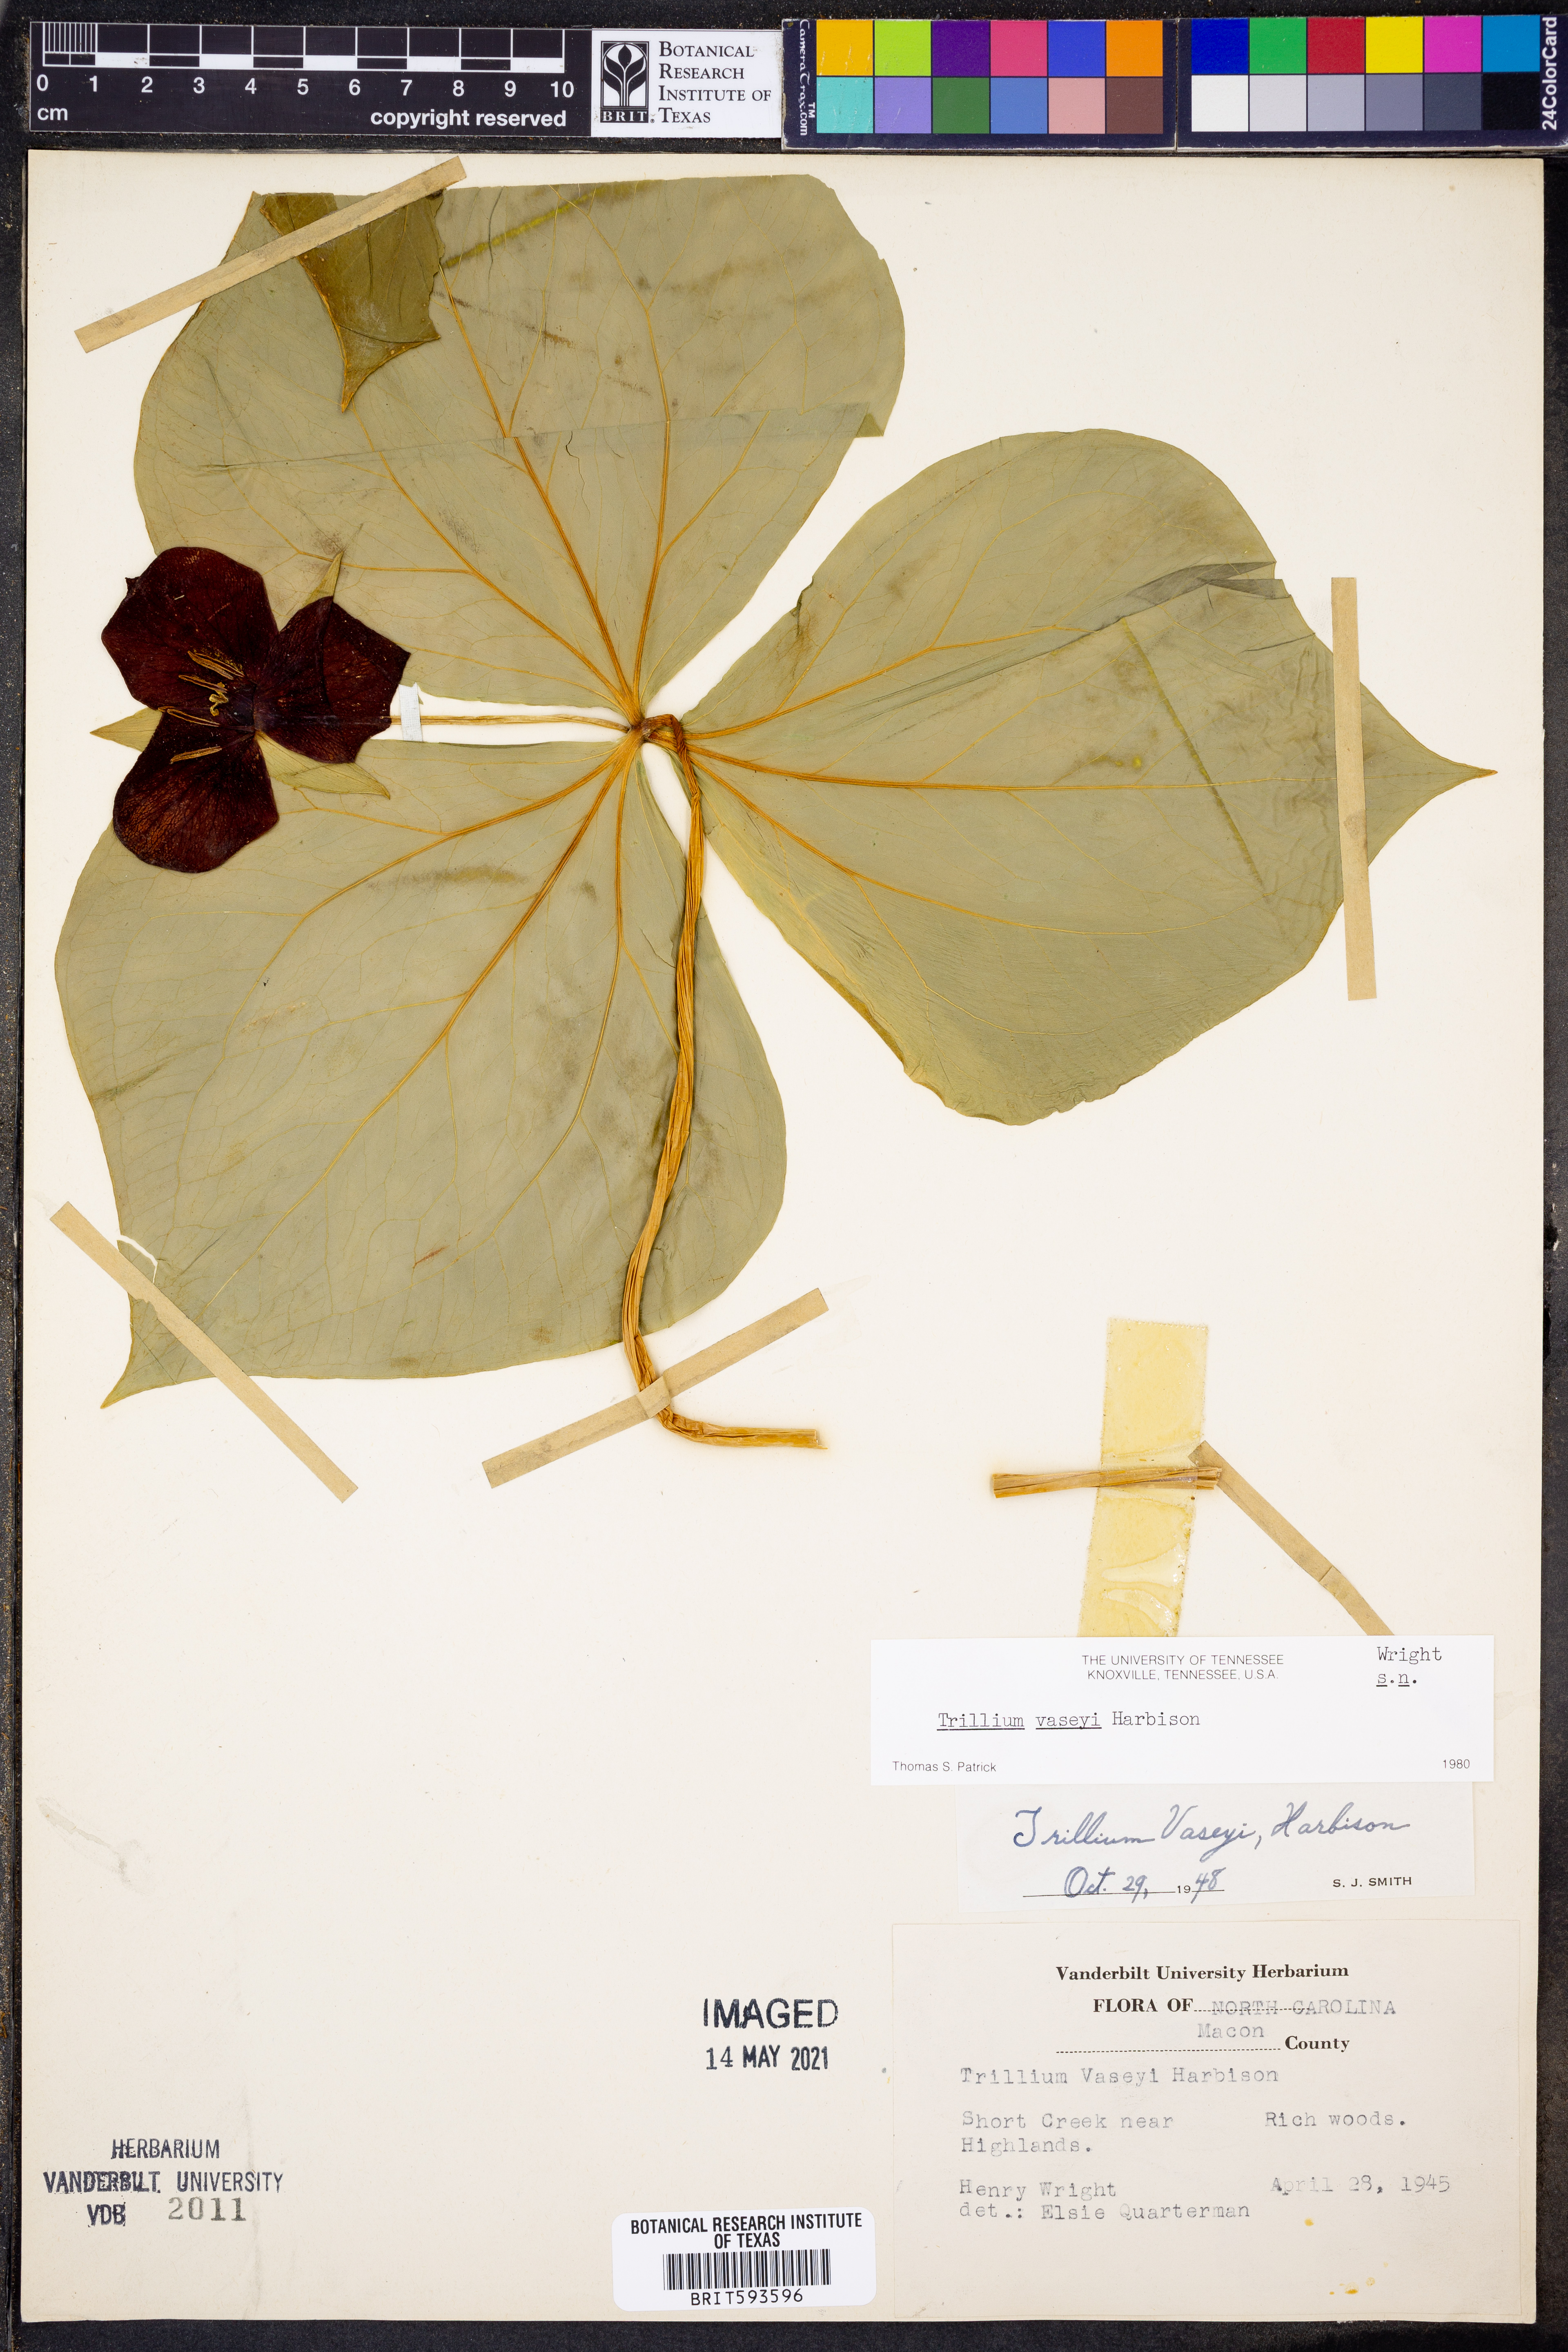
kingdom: Plantae
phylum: Tracheophyta
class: Liliopsida
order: Liliales
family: Melanthiaceae
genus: Trillium
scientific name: Trillium vaseyi
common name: Sweet trillium
